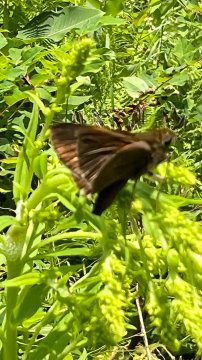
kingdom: Animalia
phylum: Arthropoda
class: Insecta
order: Lepidoptera
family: Hesperiidae
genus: Euphyes
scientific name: Euphyes vestris
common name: Dun Skipper
